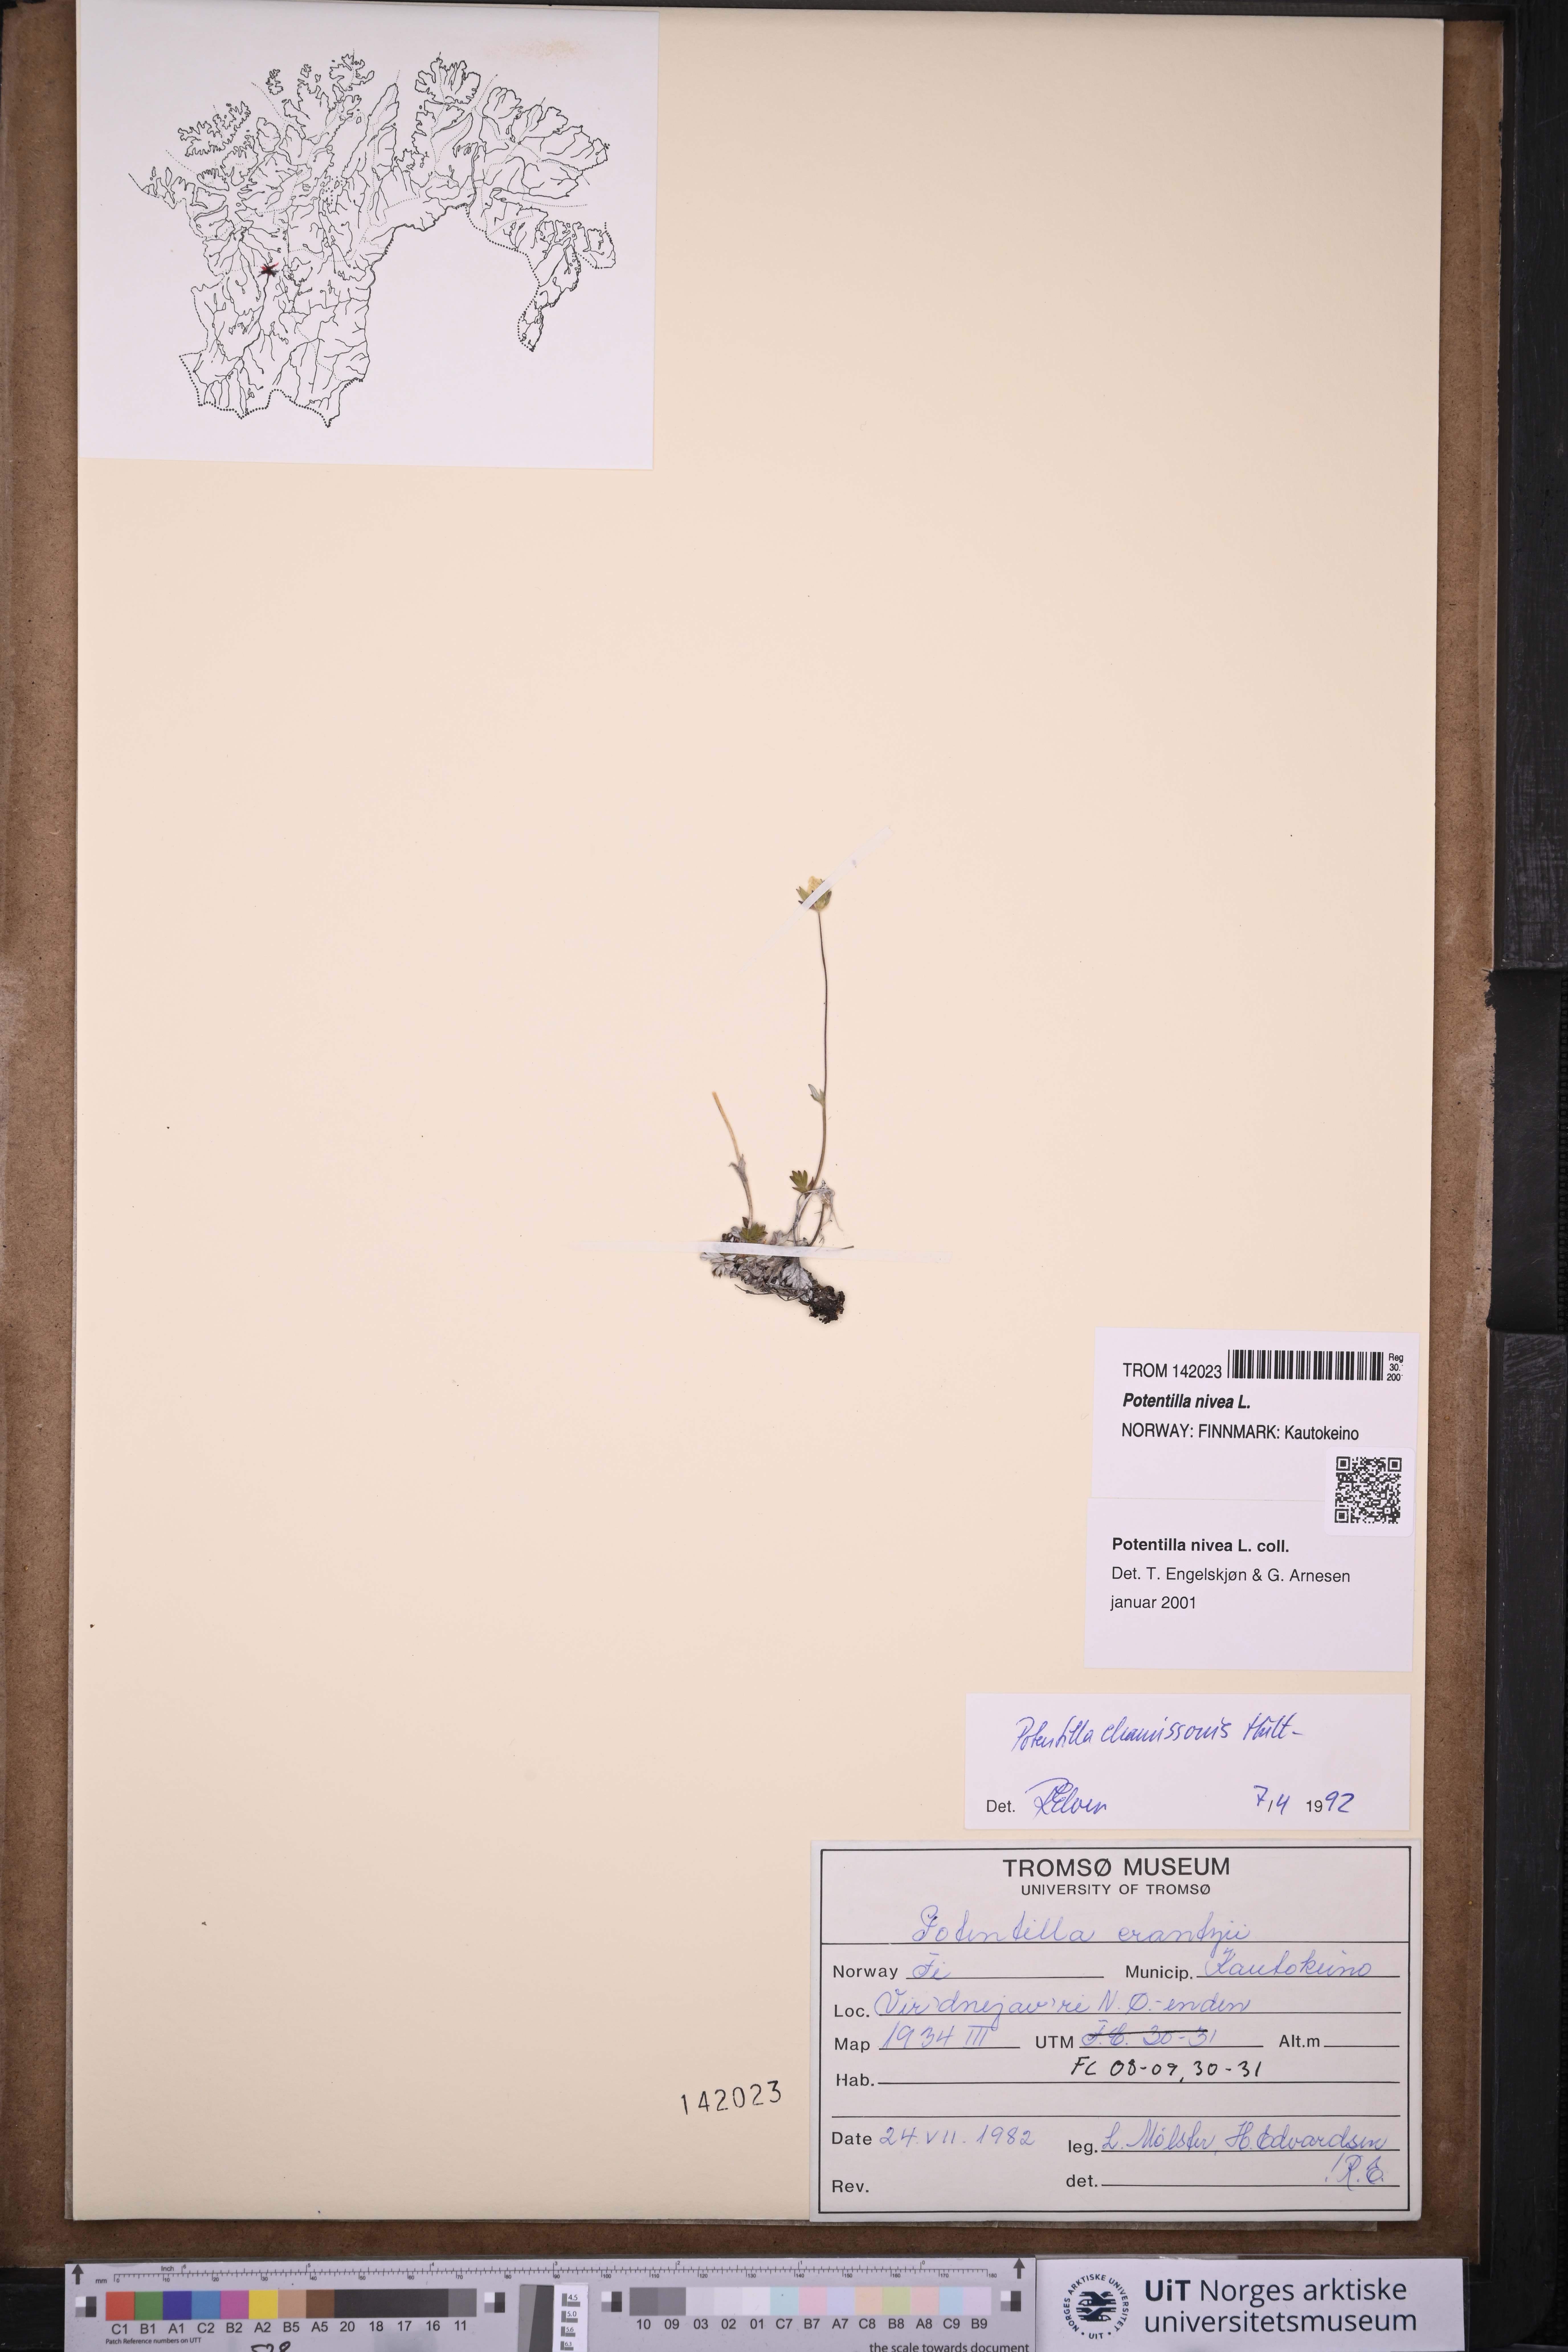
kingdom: Plantae
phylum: Tracheophyta
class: Magnoliopsida
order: Rosales
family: Rosaceae
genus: Potentilla
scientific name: Potentilla arenosa
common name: Bluff cinquefoil
